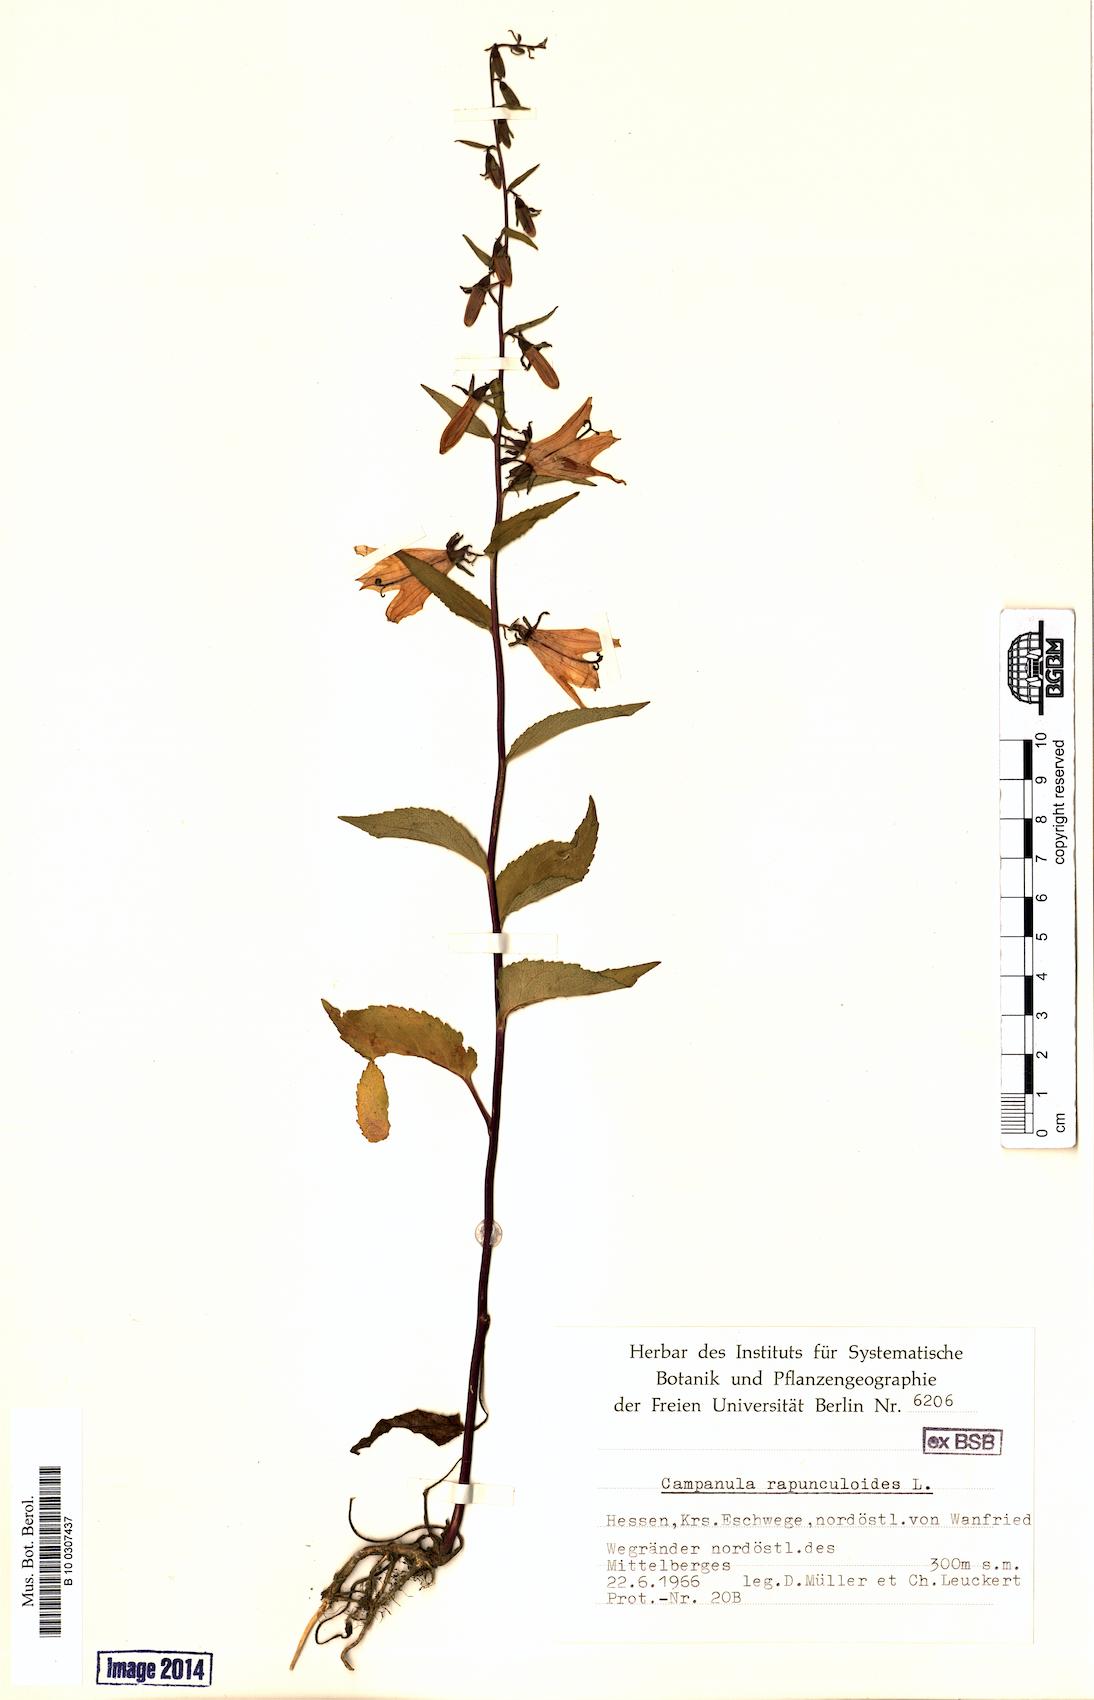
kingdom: Plantae
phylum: Tracheophyta
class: Magnoliopsida
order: Asterales
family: Campanulaceae
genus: Campanula
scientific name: Campanula rapunculoides
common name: Creeping bellflower
